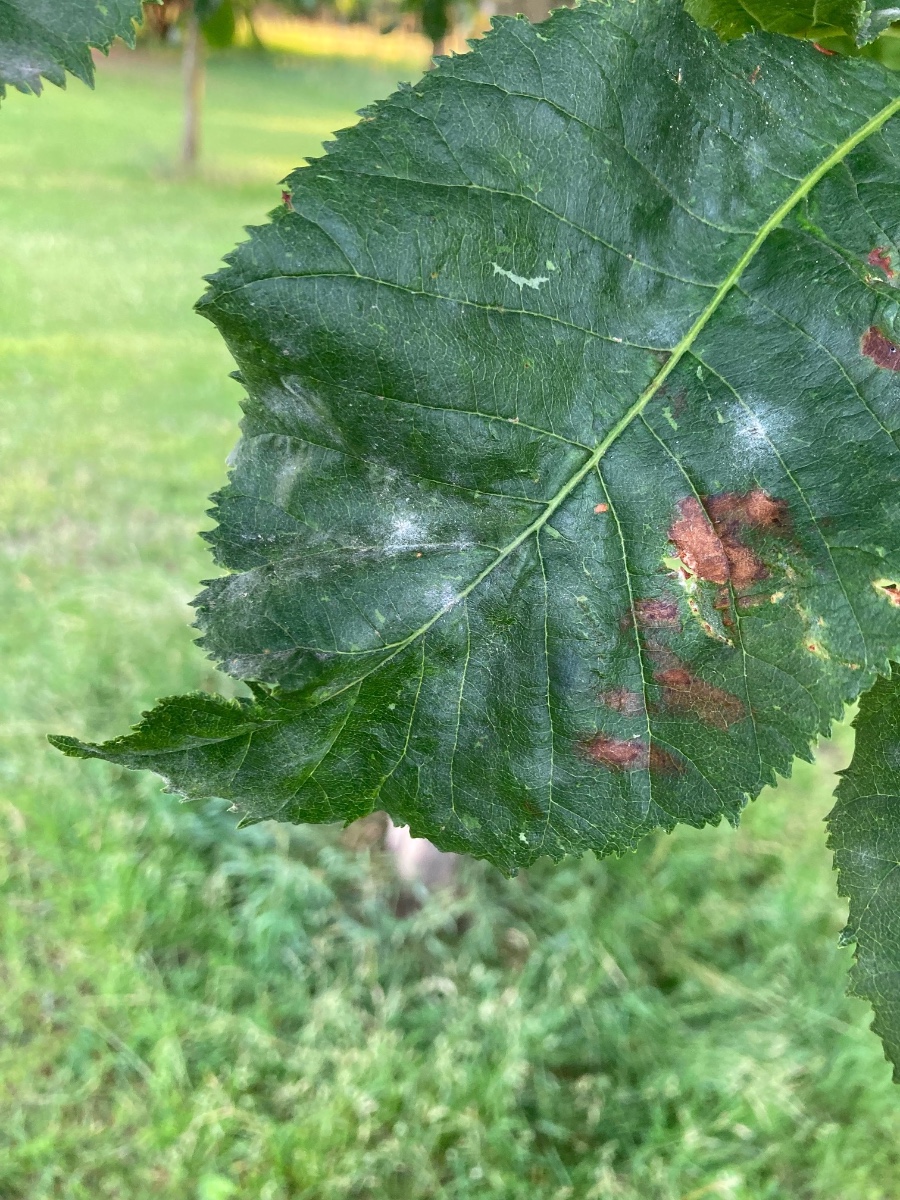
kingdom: Fungi
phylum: Ascomycota
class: Leotiomycetes
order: Helotiales
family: Erysiphaceae
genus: Erysiphe
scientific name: Erysiphe flexuosa
